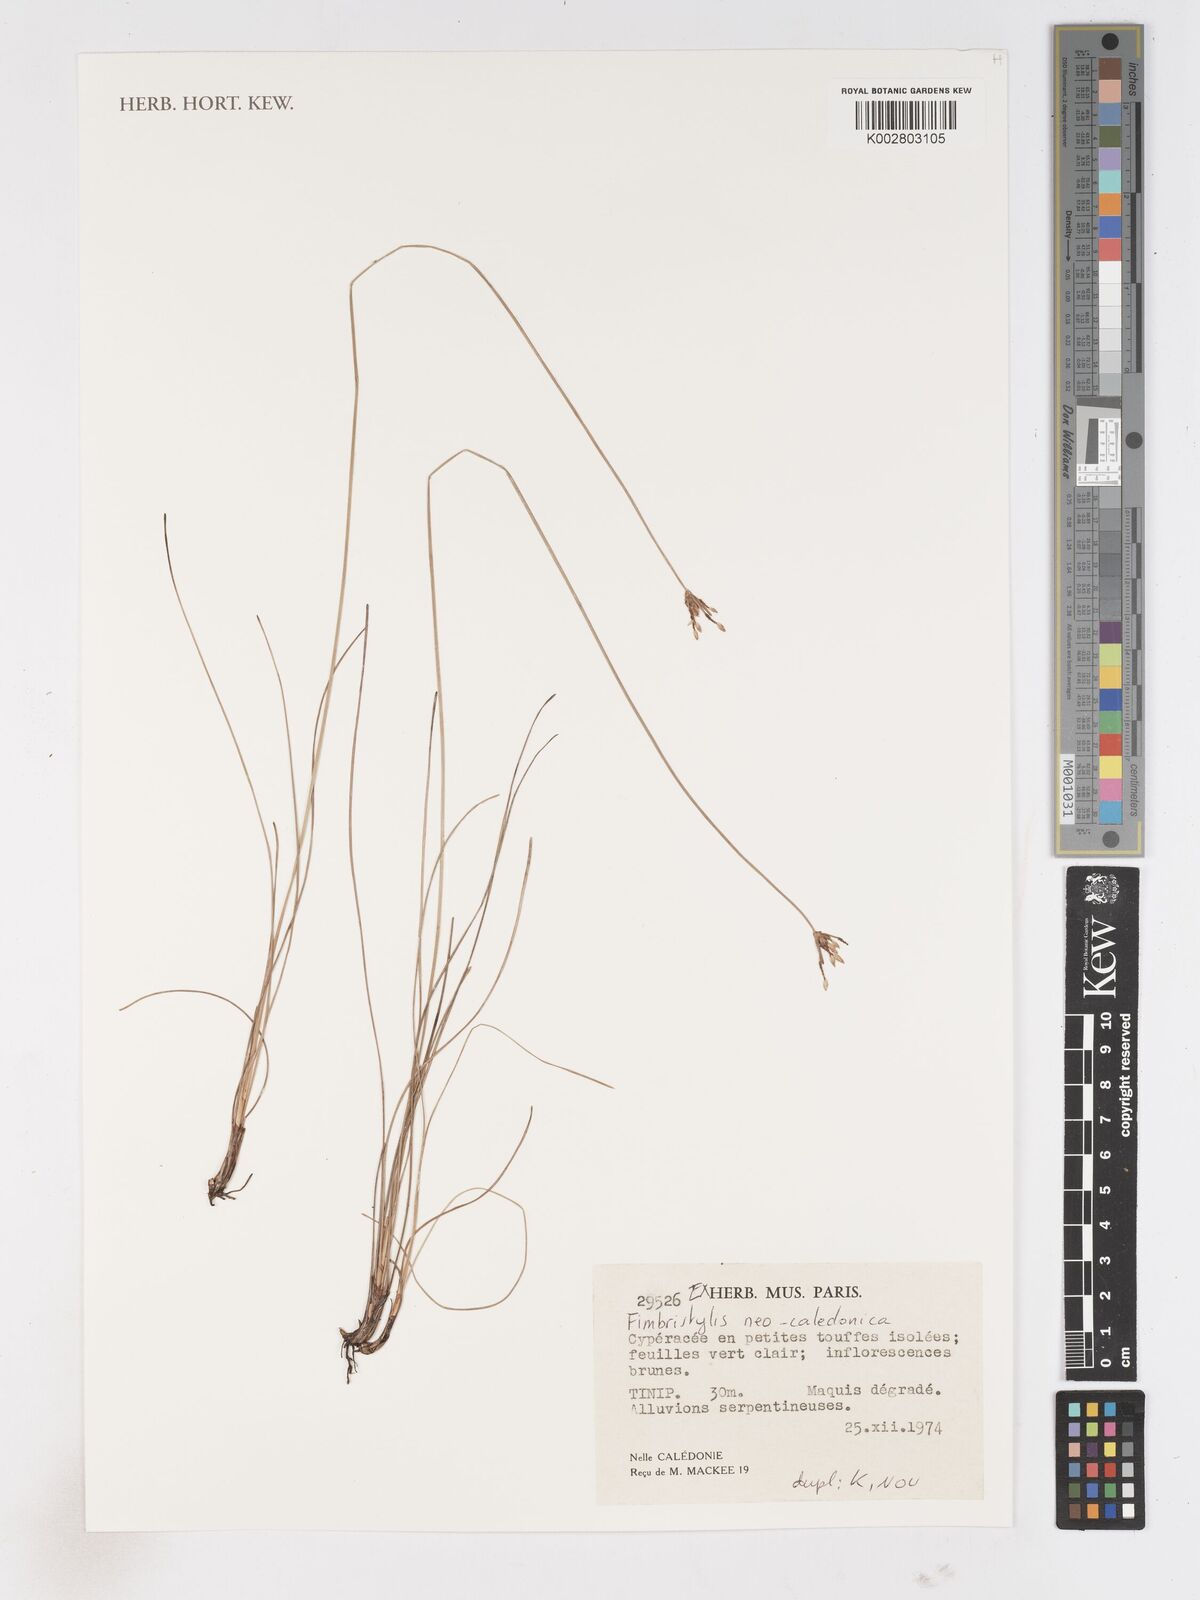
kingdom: Plantae
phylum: Tracheophyta
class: Liliopsida
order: Poales
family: Cyperaceae
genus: Fimbristylis
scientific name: Fimbristylis neocaledonica
